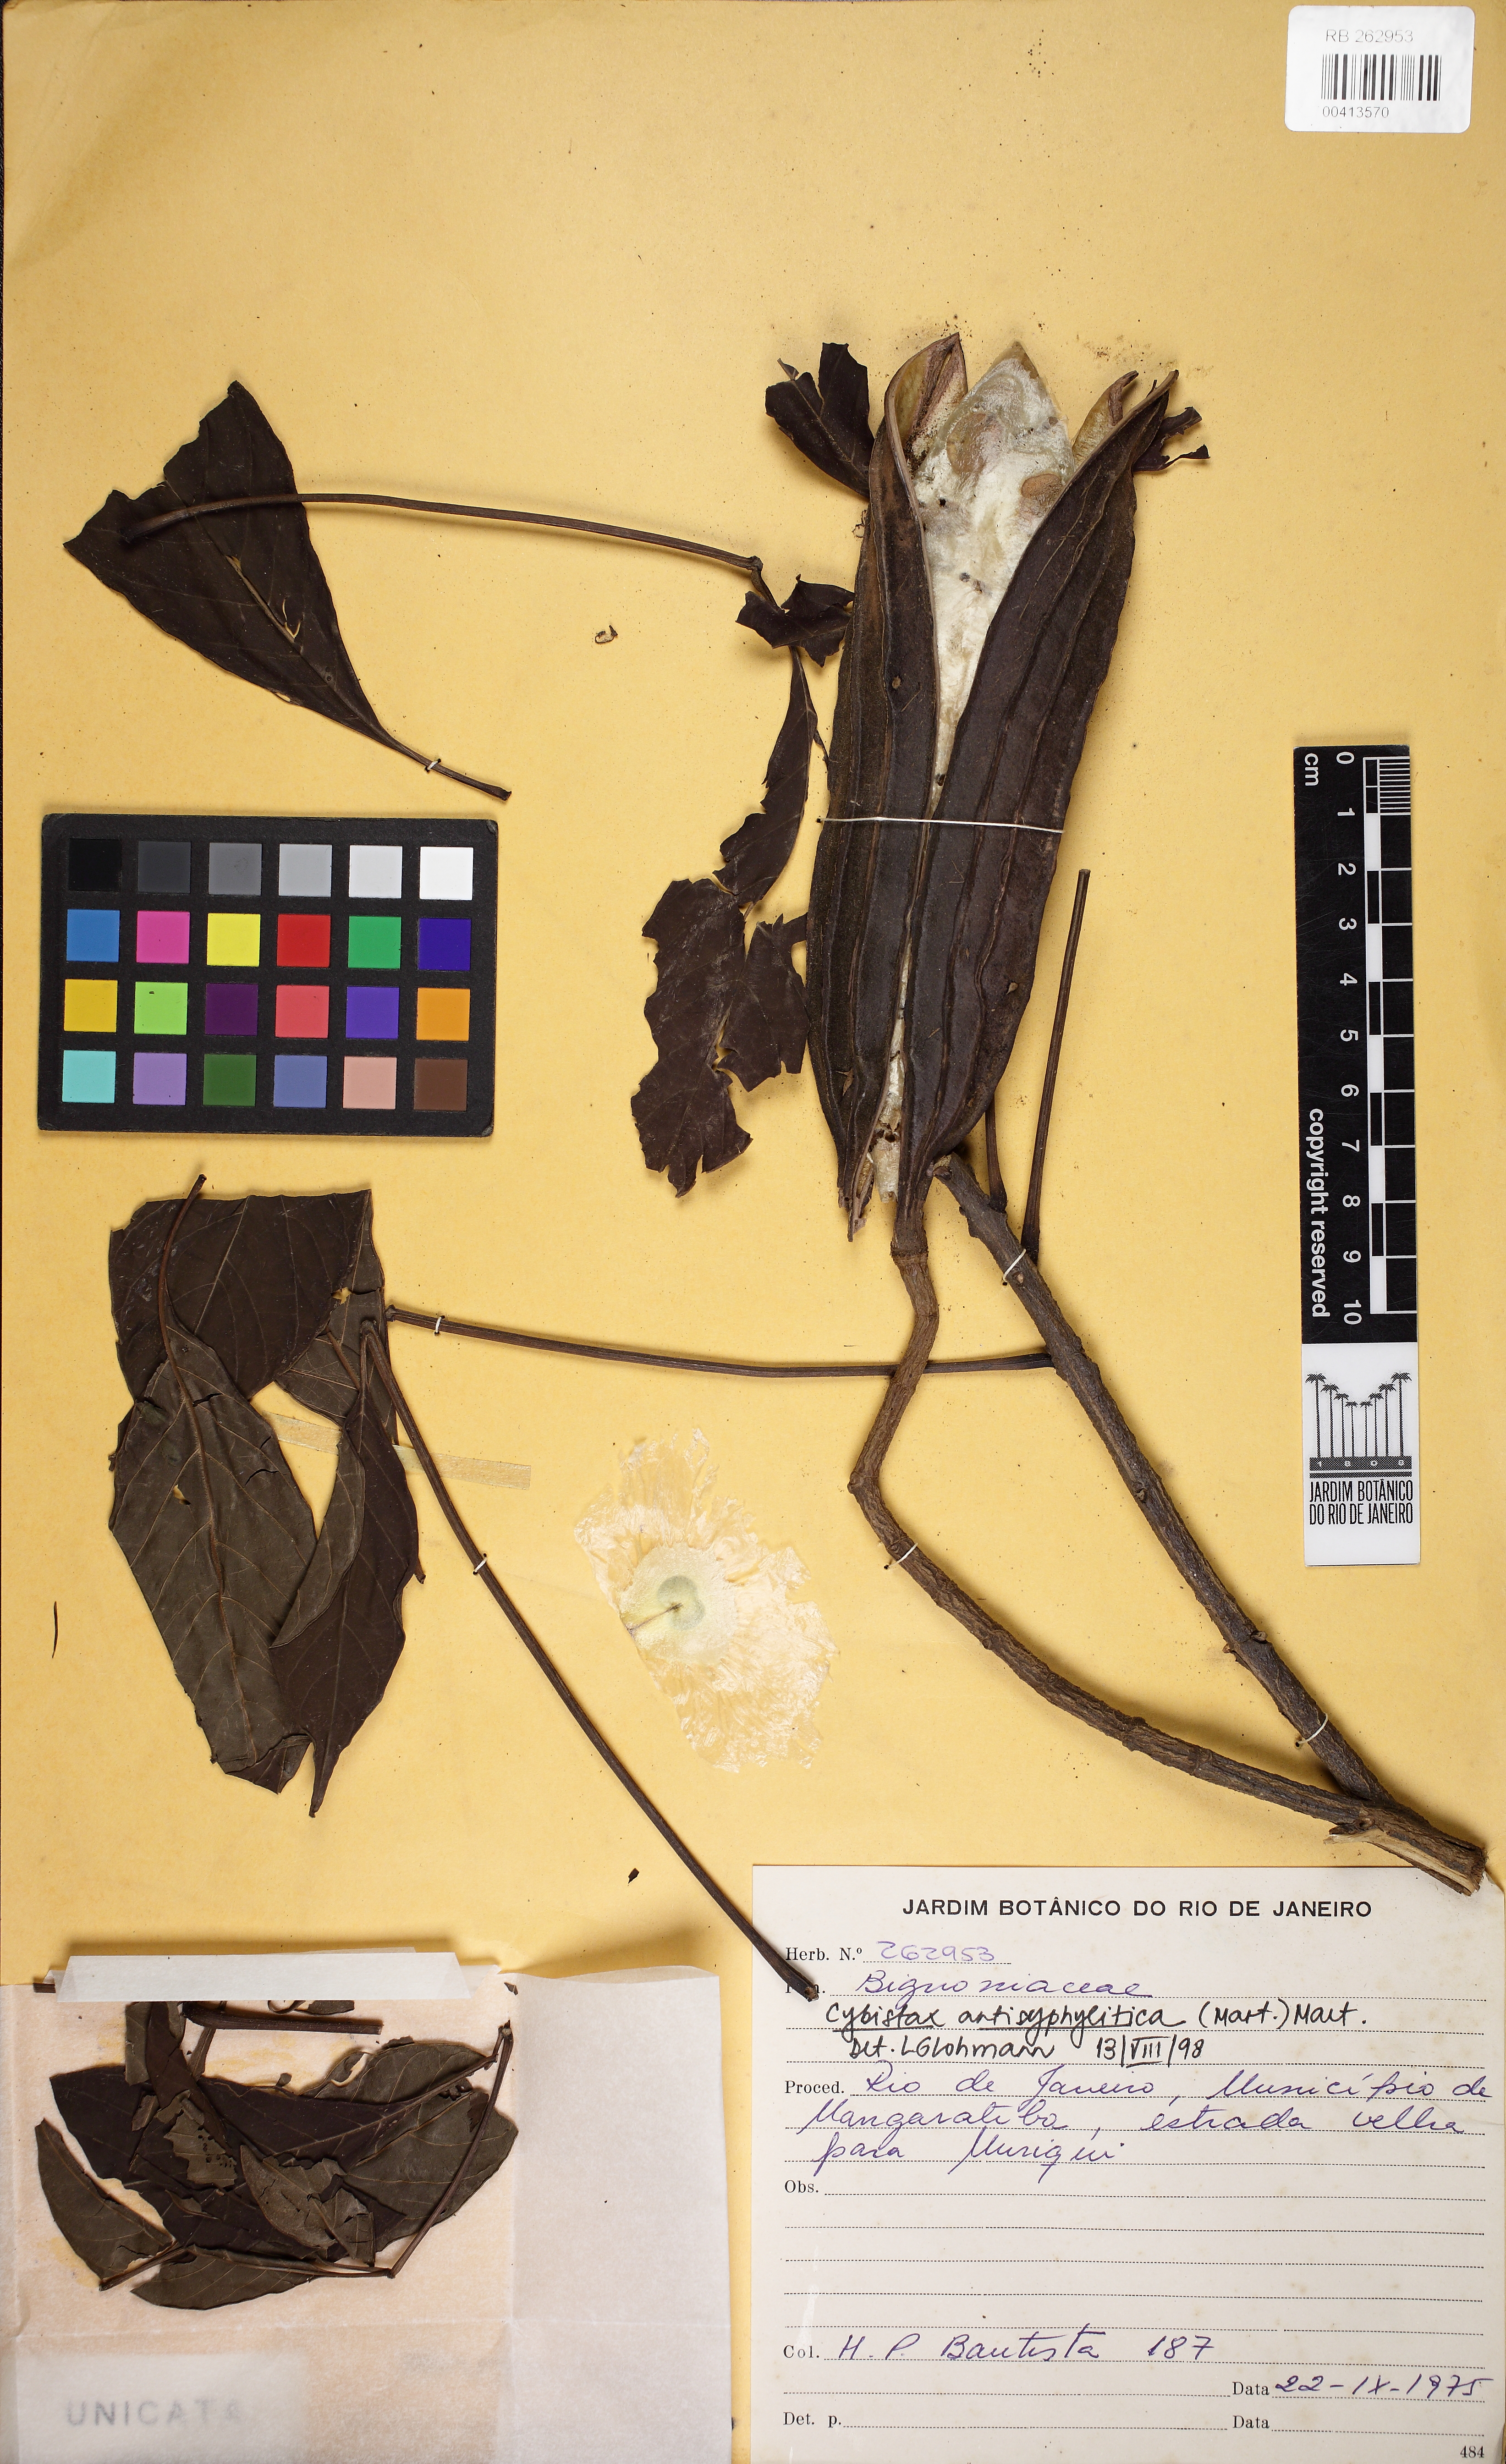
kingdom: Plantae
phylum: Tracheophyta
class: Magnoliopsida
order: Lamiales
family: Bignoniaceae
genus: Cybistax
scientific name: Cybistax antisyphilitica
